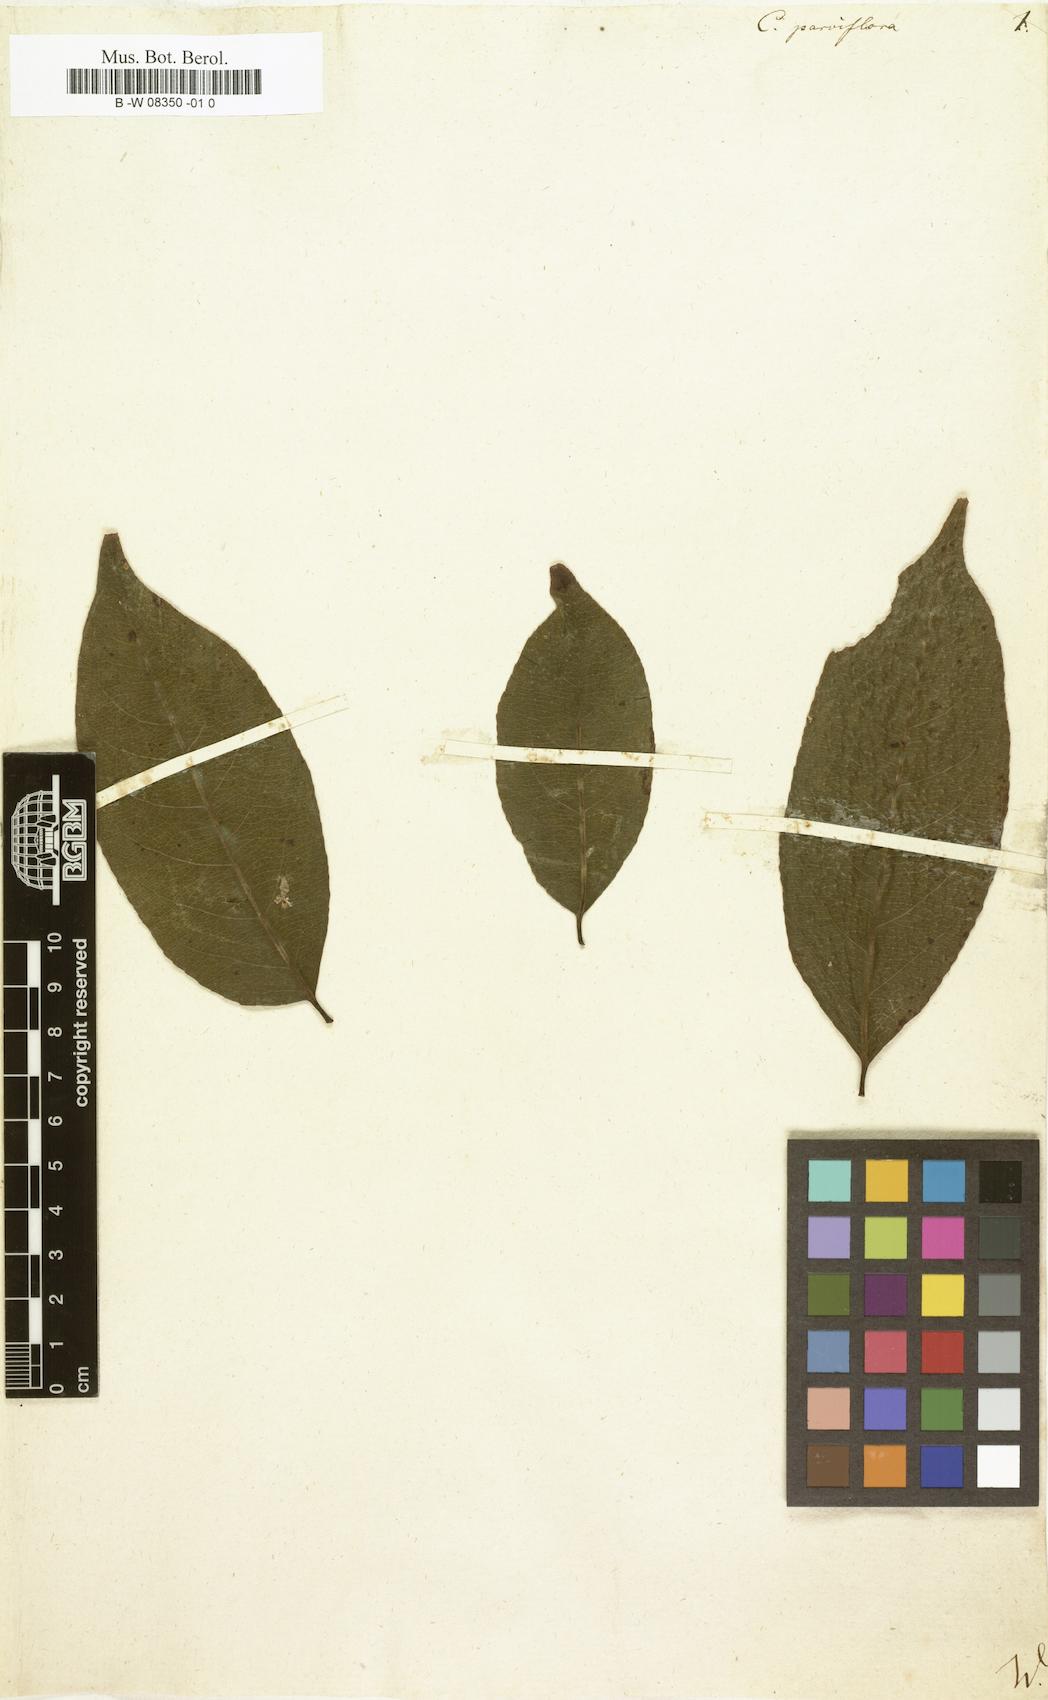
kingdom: Plantae
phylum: Tracheophyta
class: Magnoliopsida
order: Malpighiales
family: Salicaceae
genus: Casearia
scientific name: Casearia
